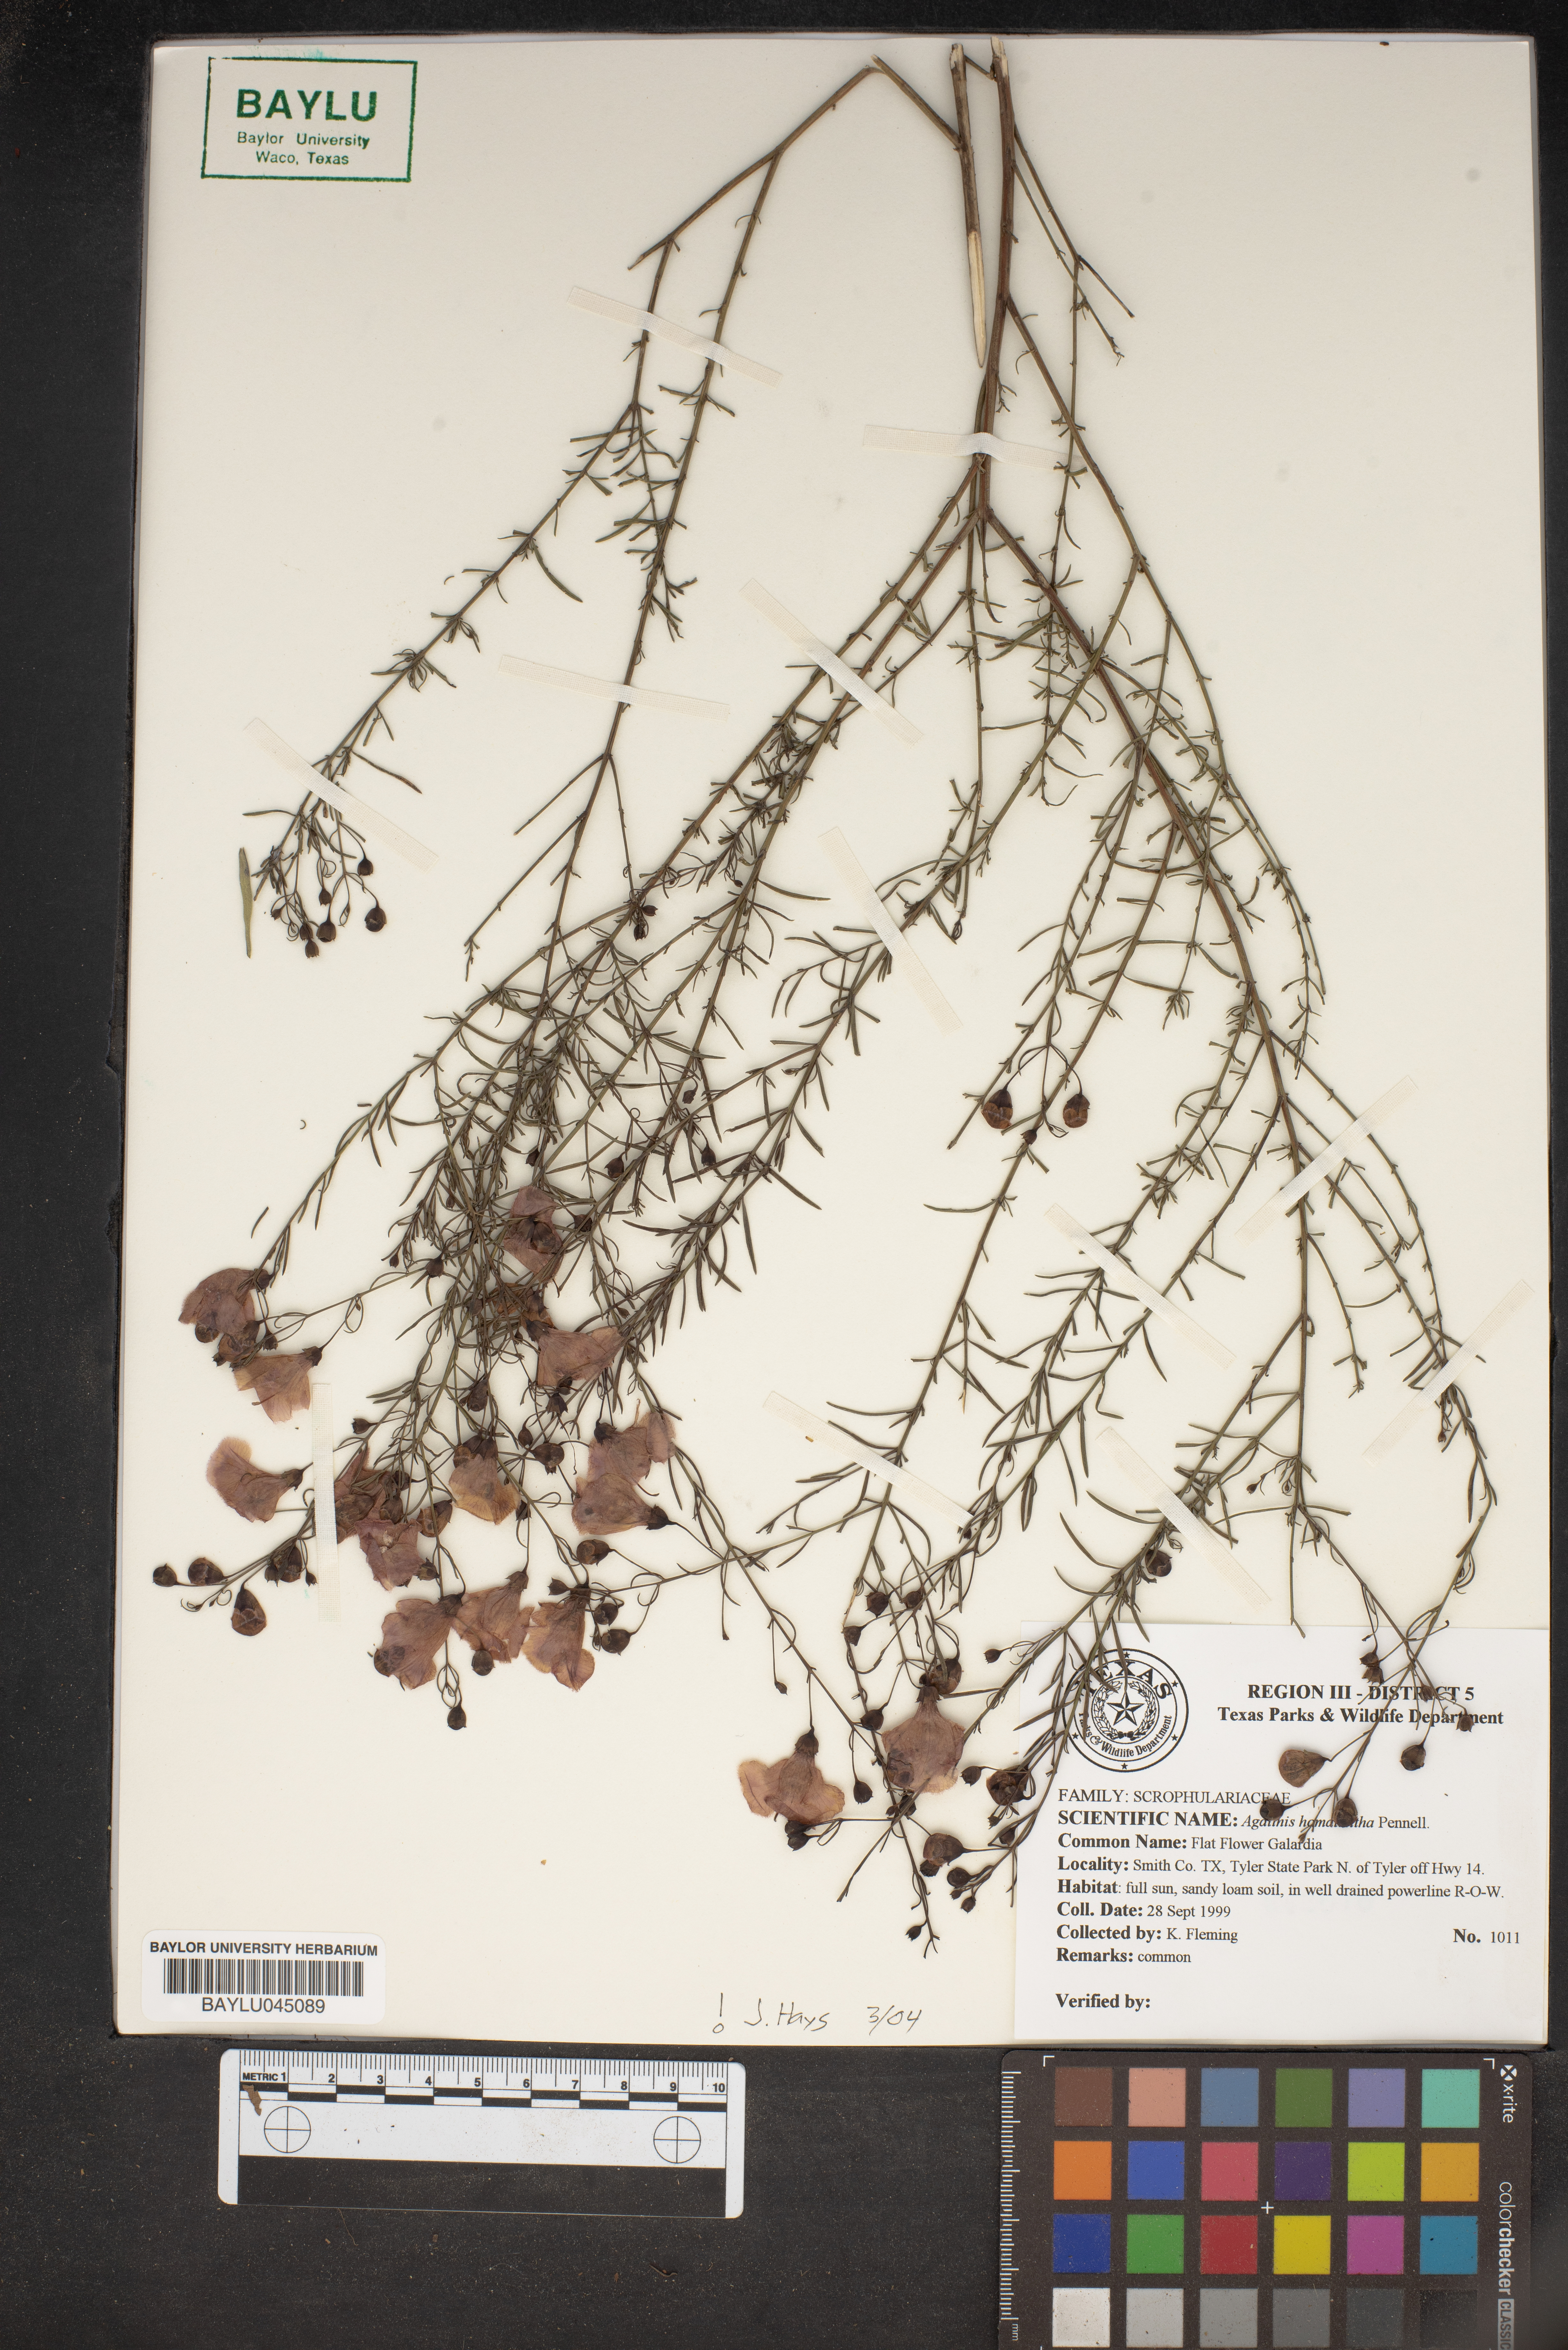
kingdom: Plantae
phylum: Tracheophyta
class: Magnoliopsida
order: Lamiales
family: Orobanchaceae
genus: Agalinis
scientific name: Agalinis homalantha
